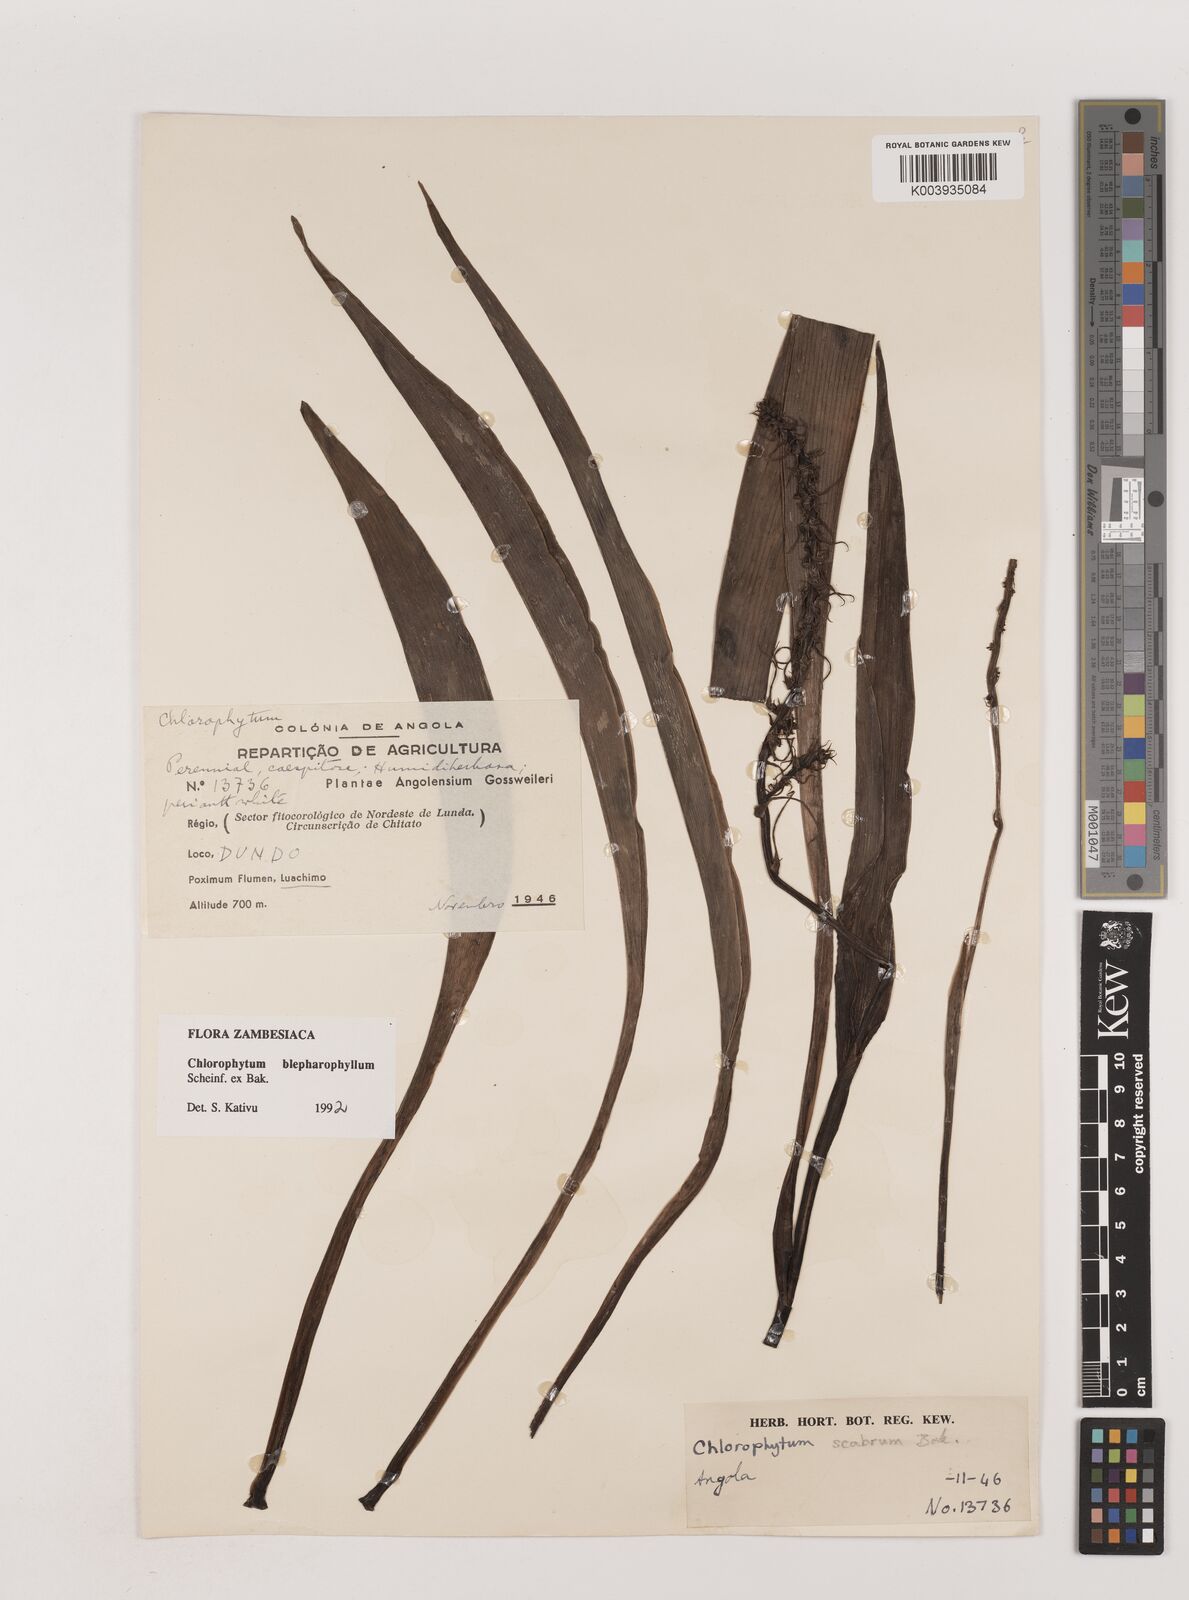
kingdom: Plantae
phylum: Tracheophyta
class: Liliopsida
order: Asparagales
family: Asparagaceae
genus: Chlorophytum
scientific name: Chlorophytum blepharophyllum
